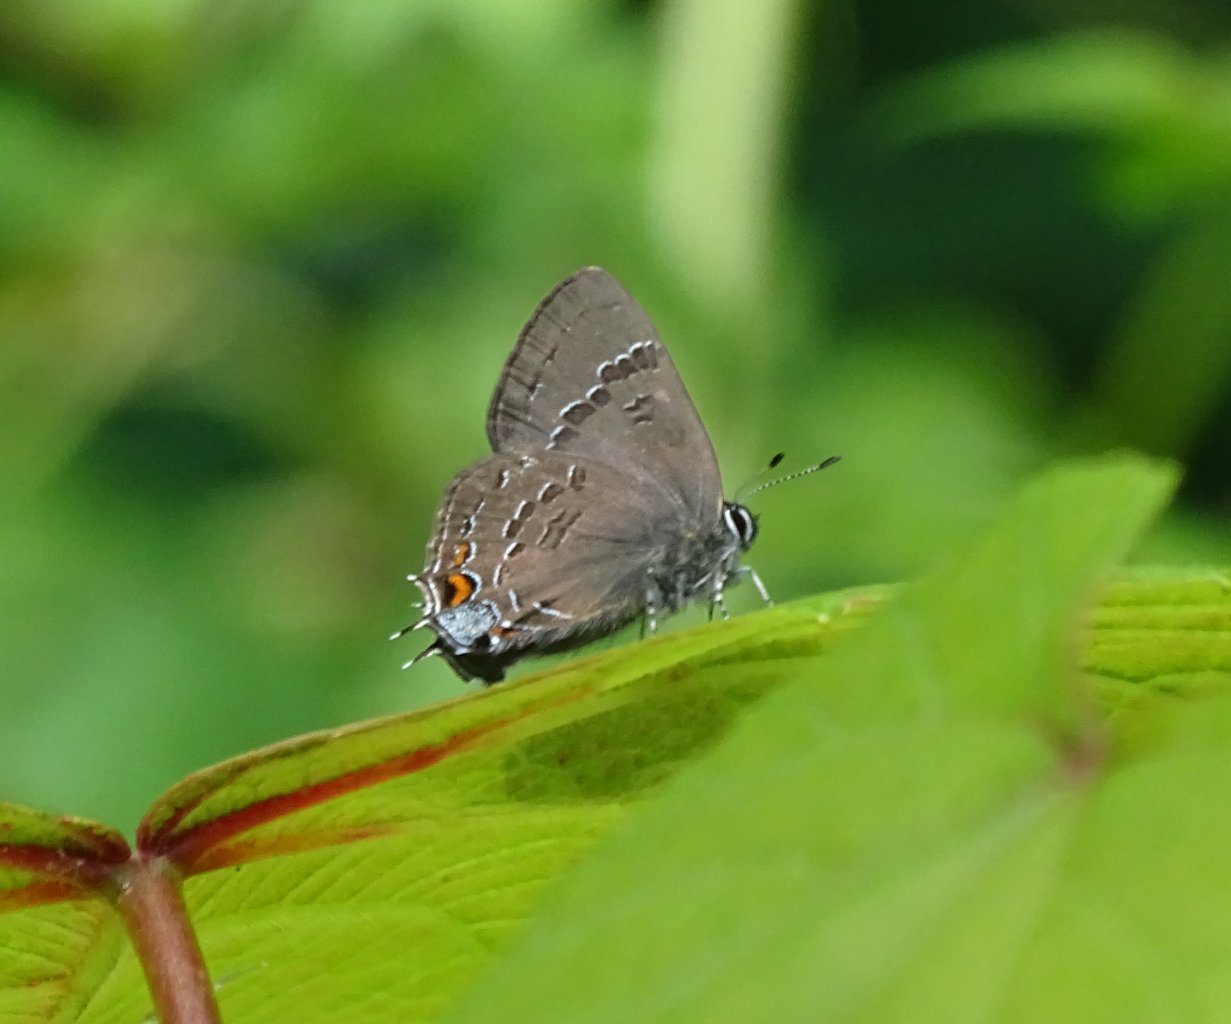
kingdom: Animalia
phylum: Arthropoda
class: Insecta
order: Lepidoptera
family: Lycaenidae
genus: Satyrium
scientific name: Satyrium calanus
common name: Banded Hairstreak
